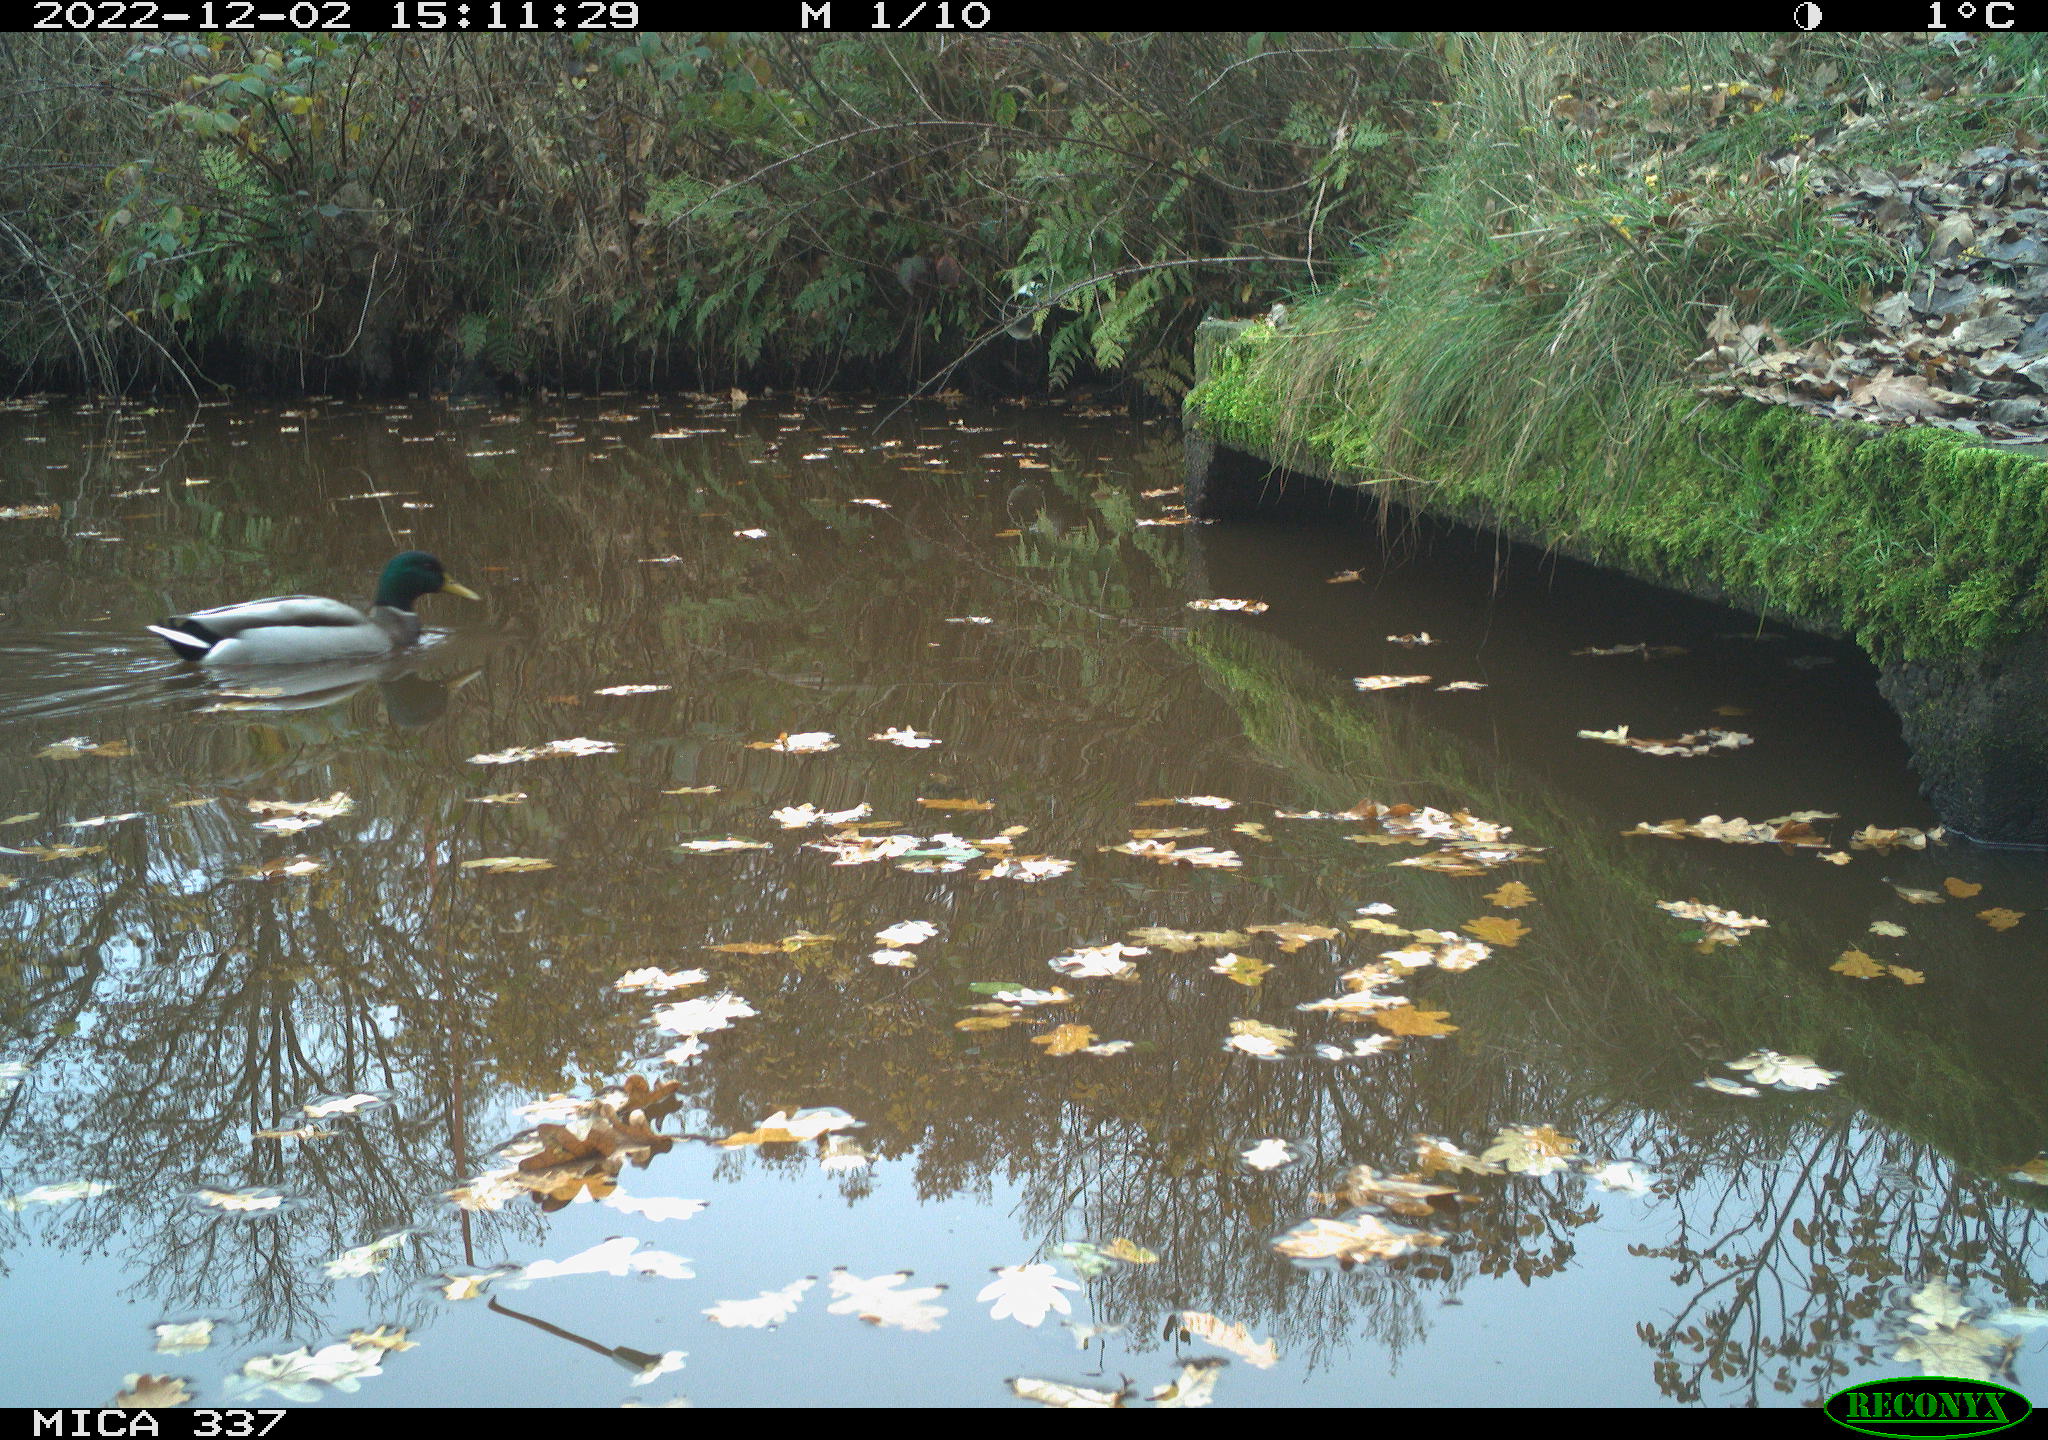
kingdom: Animalia
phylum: Chordata
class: Aves
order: Anseriformes
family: Anatidae
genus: Anas
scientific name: Anas
